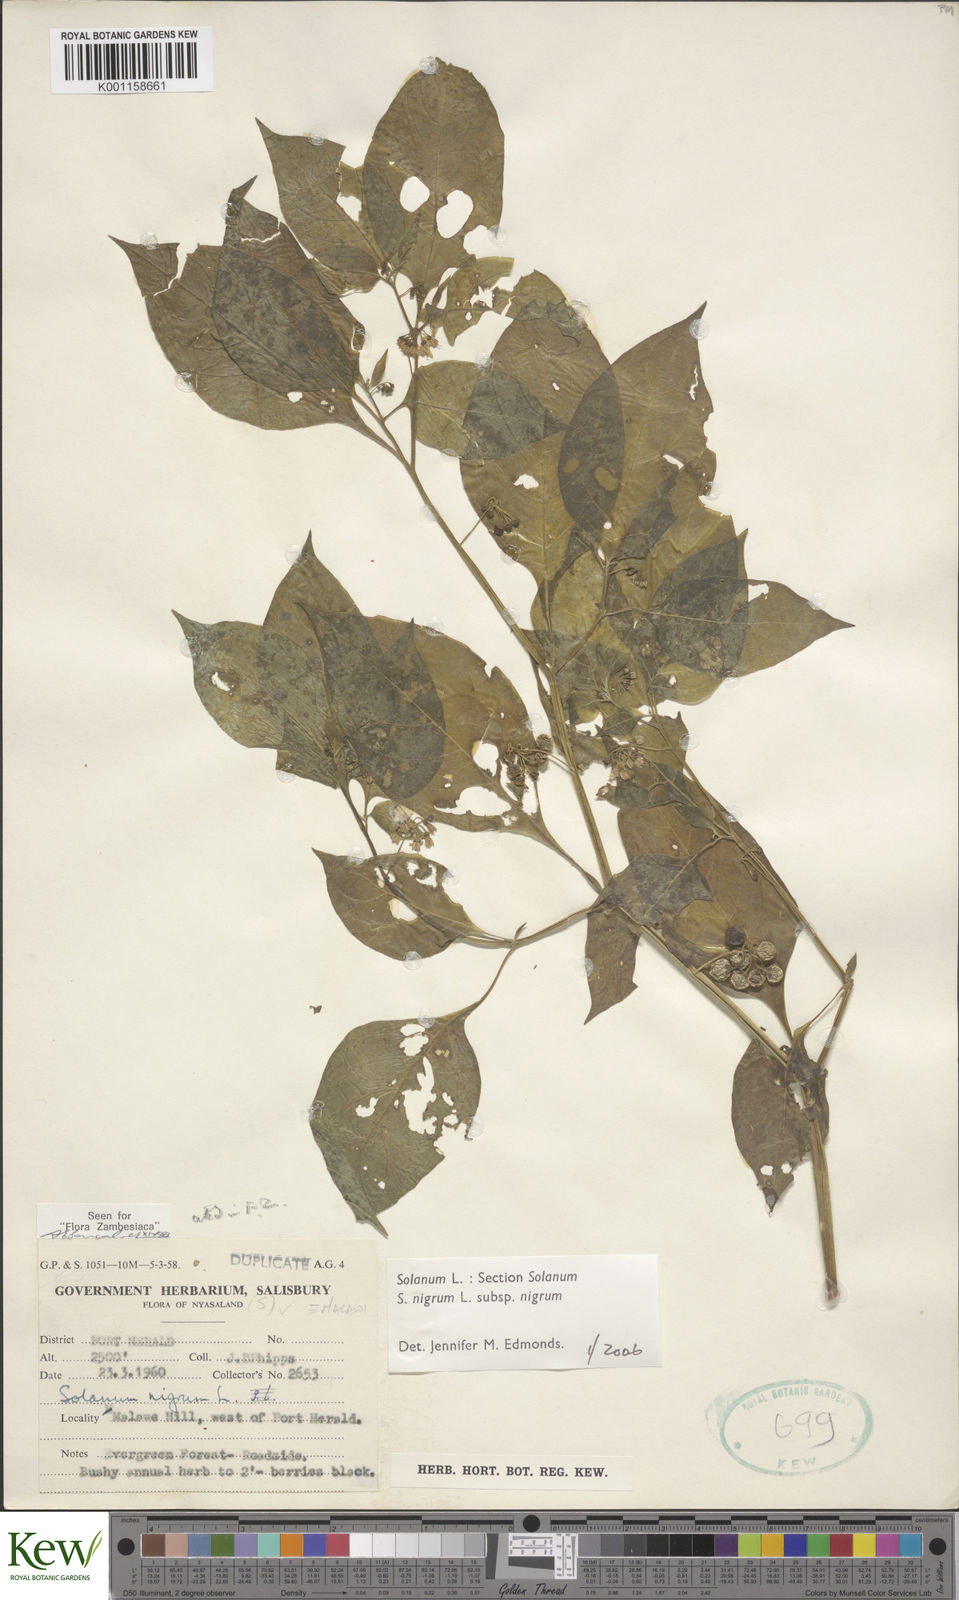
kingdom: Plantae
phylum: Tracheophyta
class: Magnoliopsida
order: Solanales
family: Solanaceae
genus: Solanum
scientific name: Solanum nigrum
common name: Black nightshade
